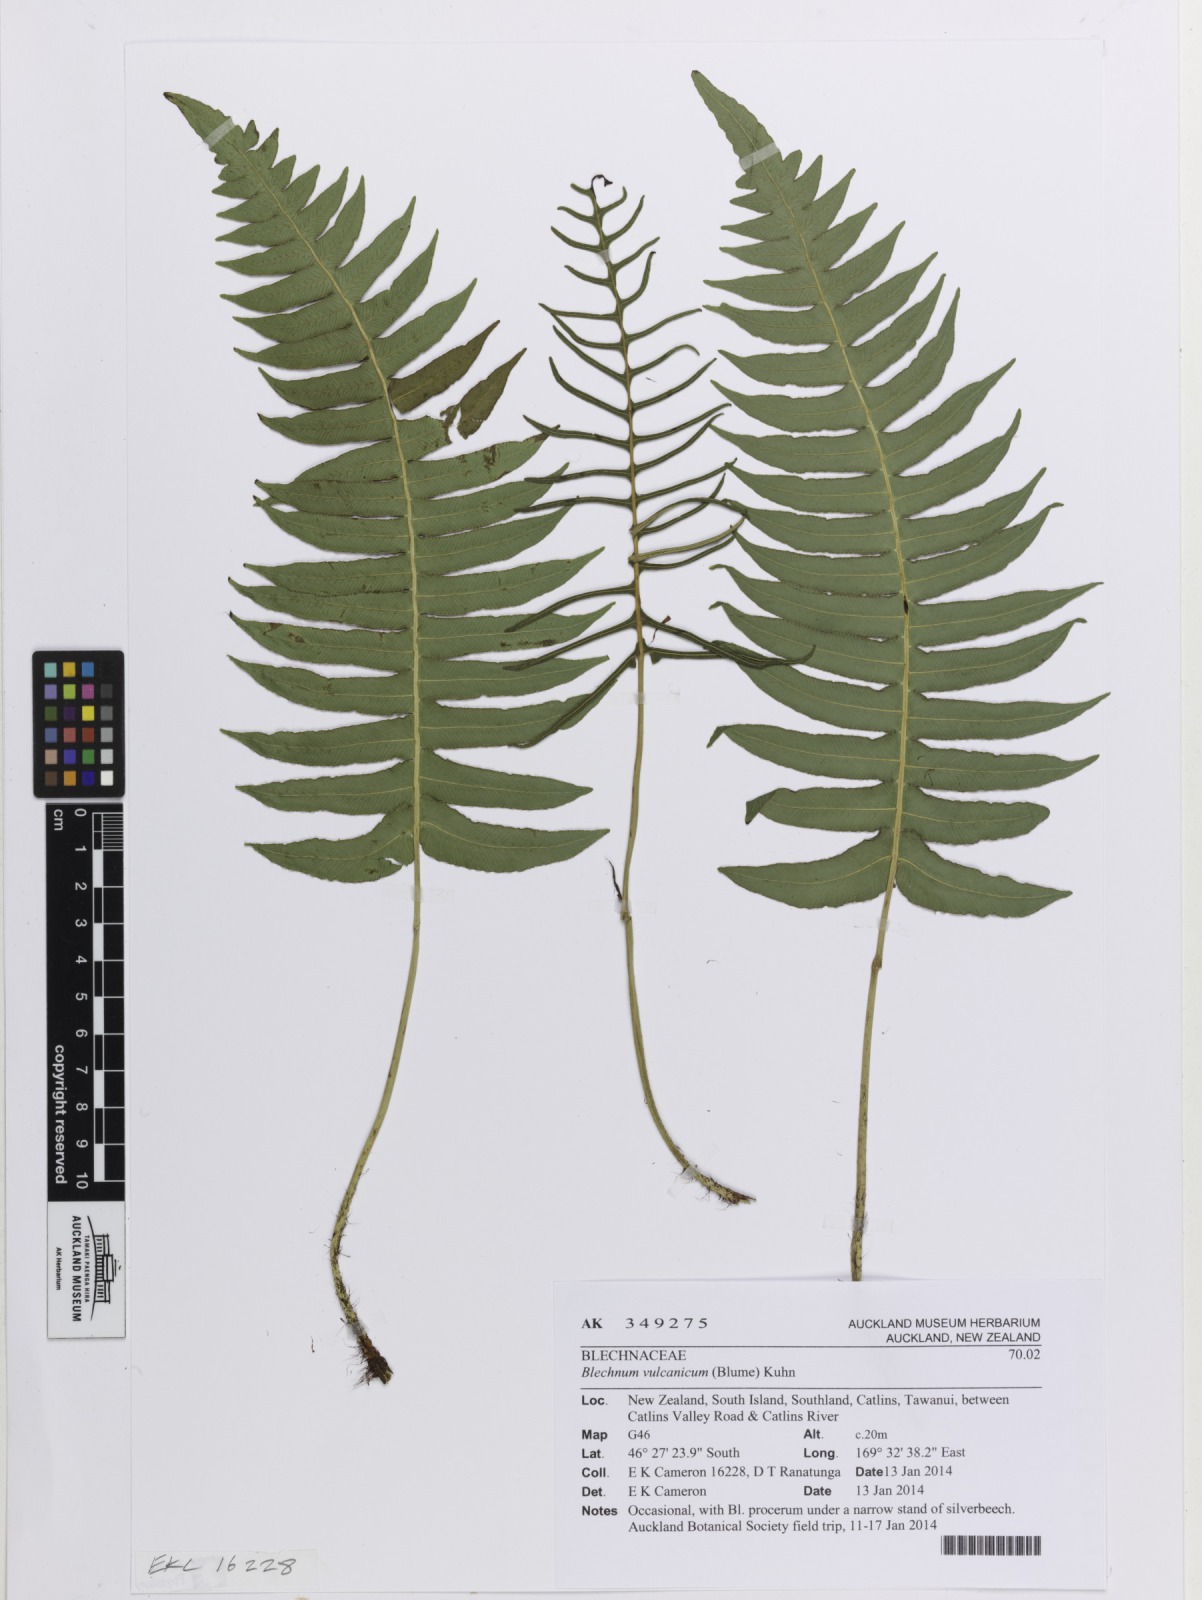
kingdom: Plantae
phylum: Tracheophyta
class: Polypodiopsida
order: Polypodiales
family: Blechnaceae
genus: Cranfillia
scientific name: Cranfillia vulcanica
